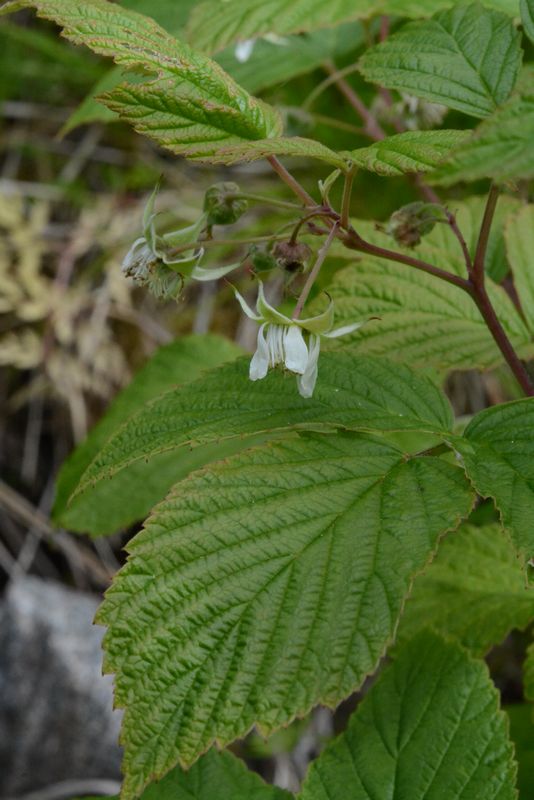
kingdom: Plantae
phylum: Tracheophyta
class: Magnoliopsida
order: Rosales
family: Rosaceae
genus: Rubus
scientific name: Rubus idaeus
